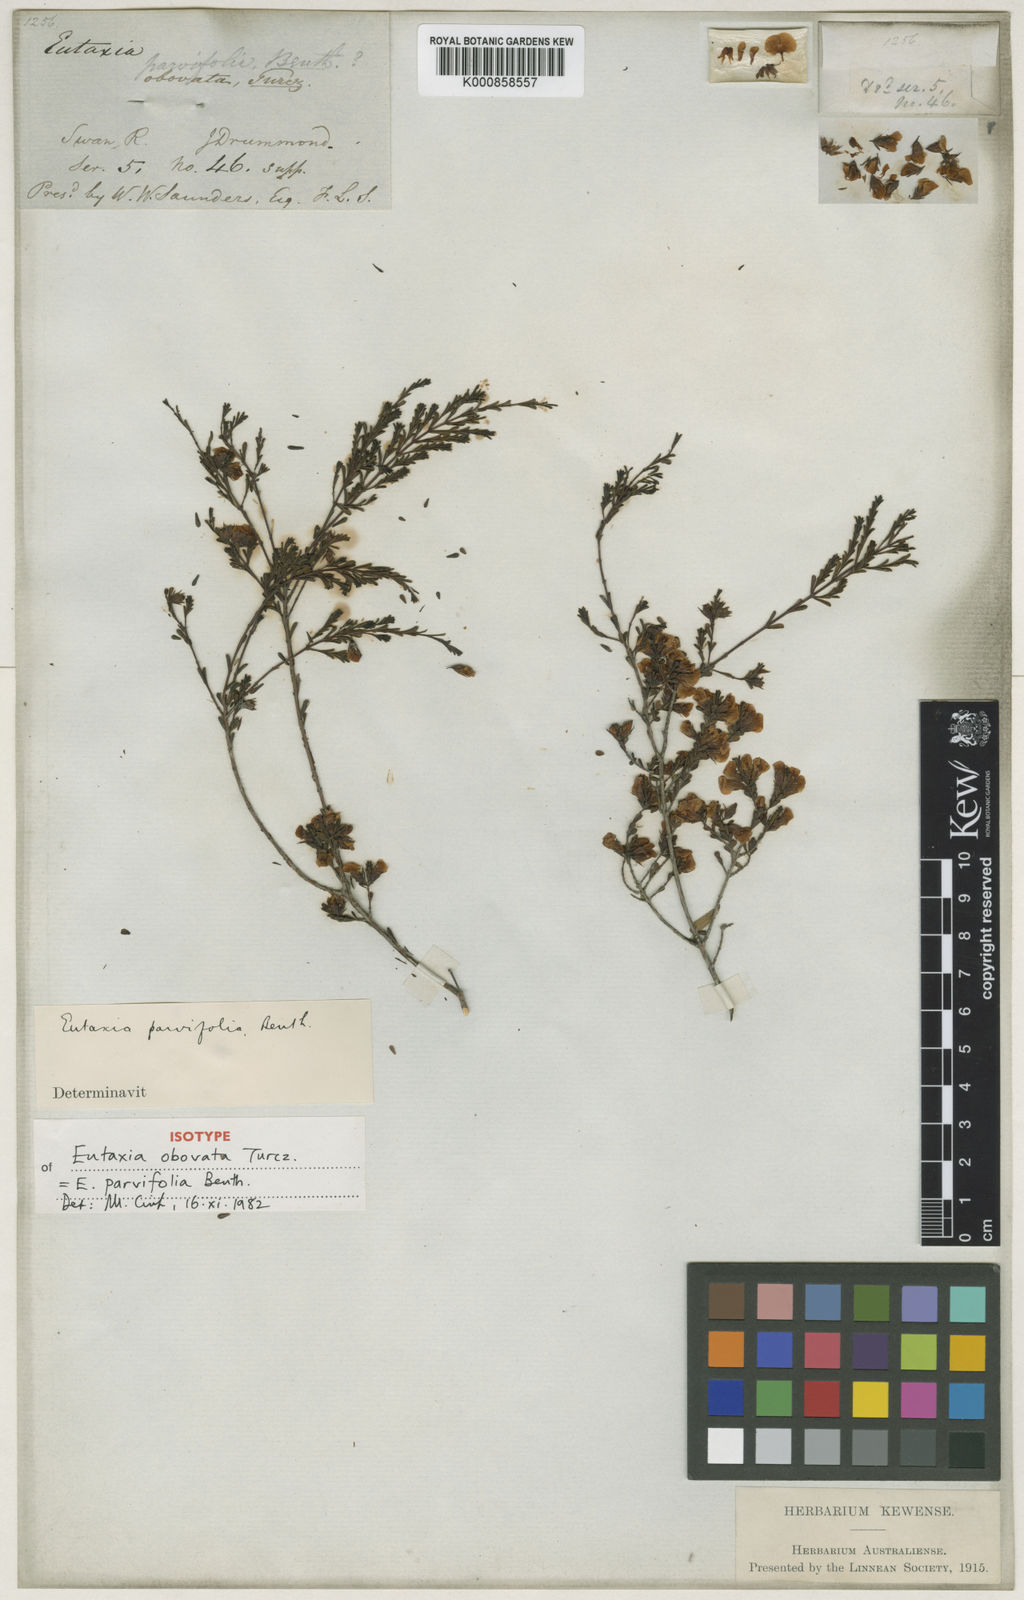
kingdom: Plantae
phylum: Tracheophyta
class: Magnoliopsida
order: Fabales
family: Fabaceae
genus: Eutaxia
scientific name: Eutaxia parvifolia
